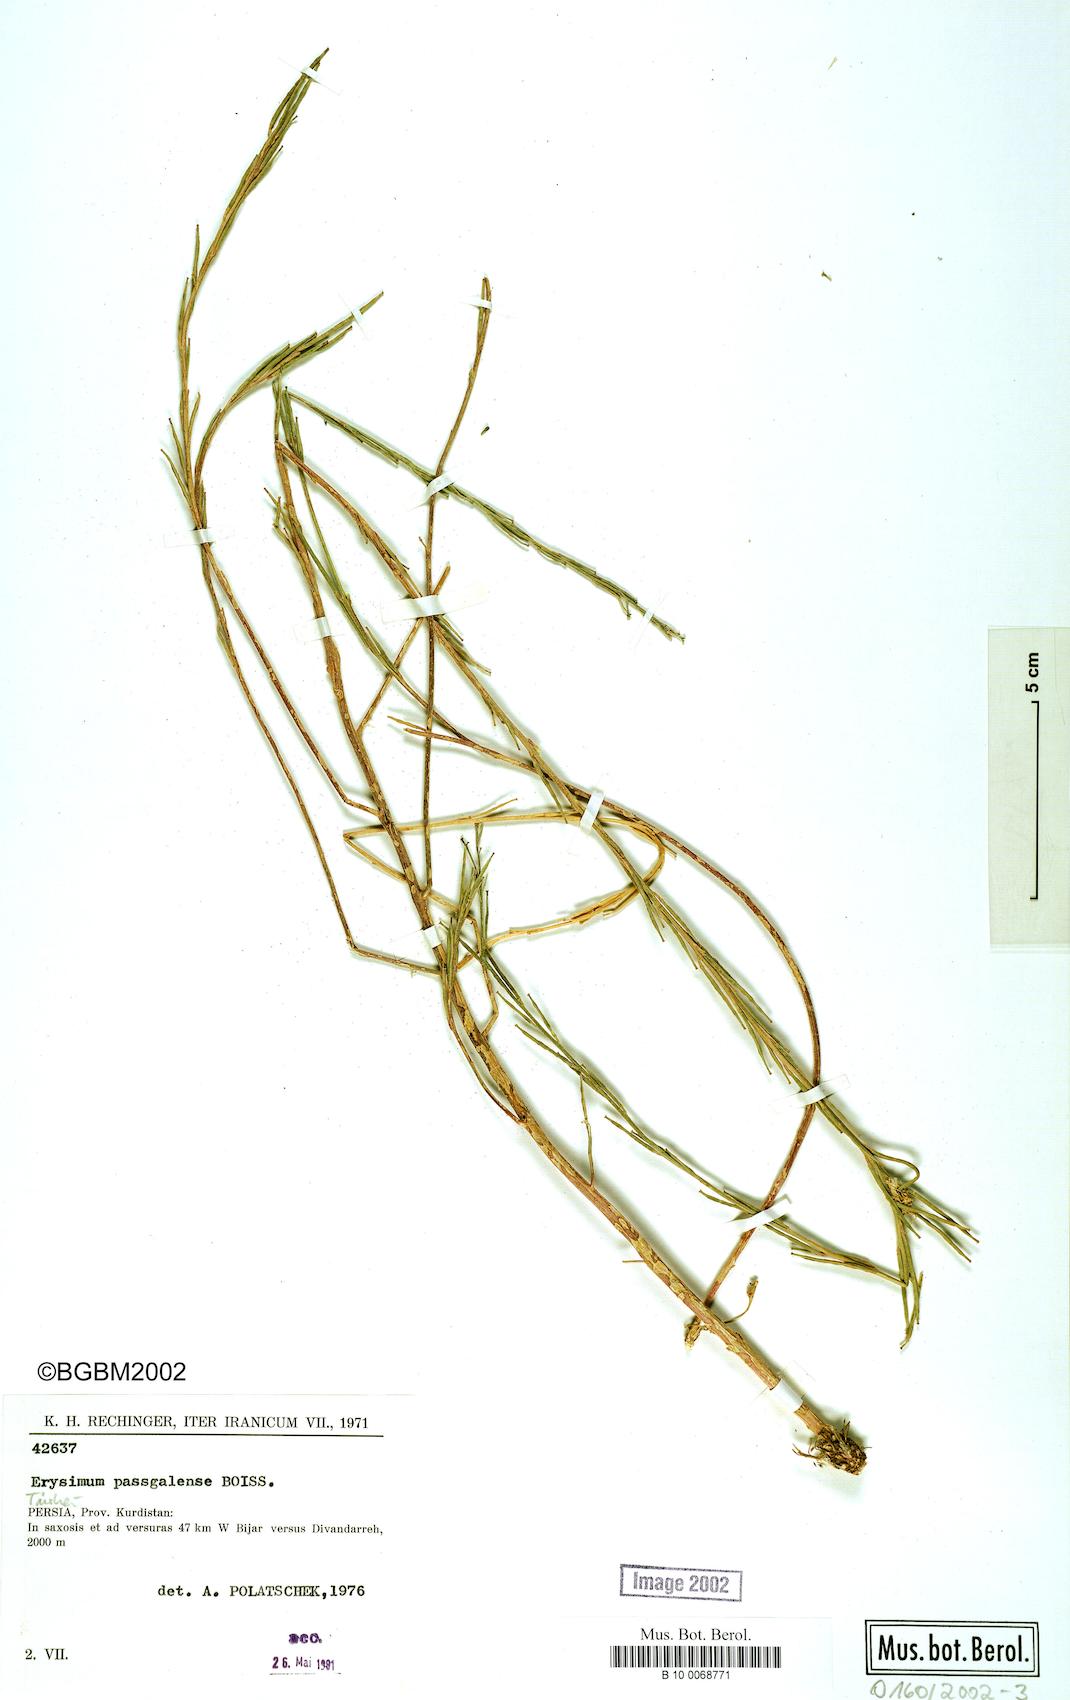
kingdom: Plantae
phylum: Tracheophyta
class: Magnoliopsida
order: Brassicales
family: Brassicaceae
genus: Erysimum
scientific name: Erysimum aucherianum
